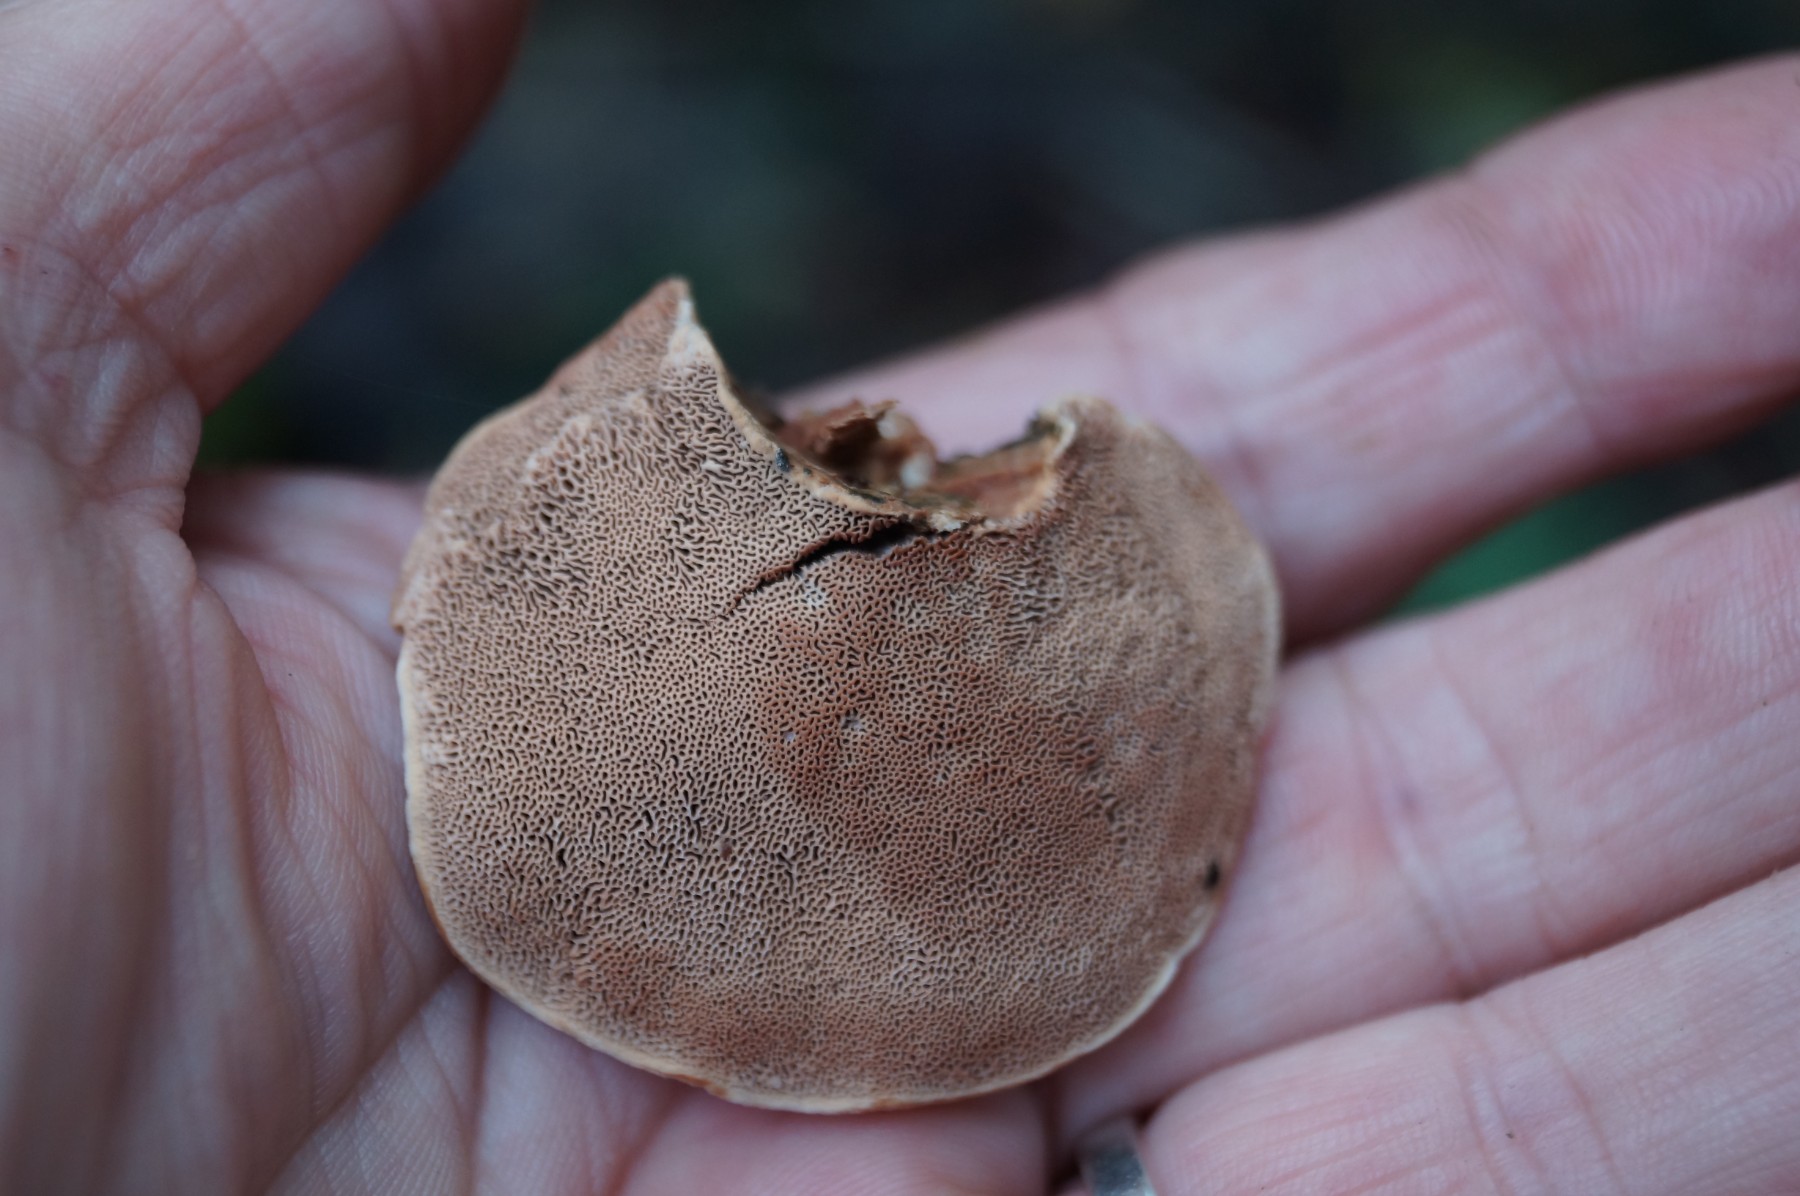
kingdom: Fungi
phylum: Basidiomycota
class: Agaricomycetes
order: Polyporales
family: Phanerochaetaceae
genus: Hapalopilus
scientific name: Hapalopilus rutilans
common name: rødlig okkerporesvamp
